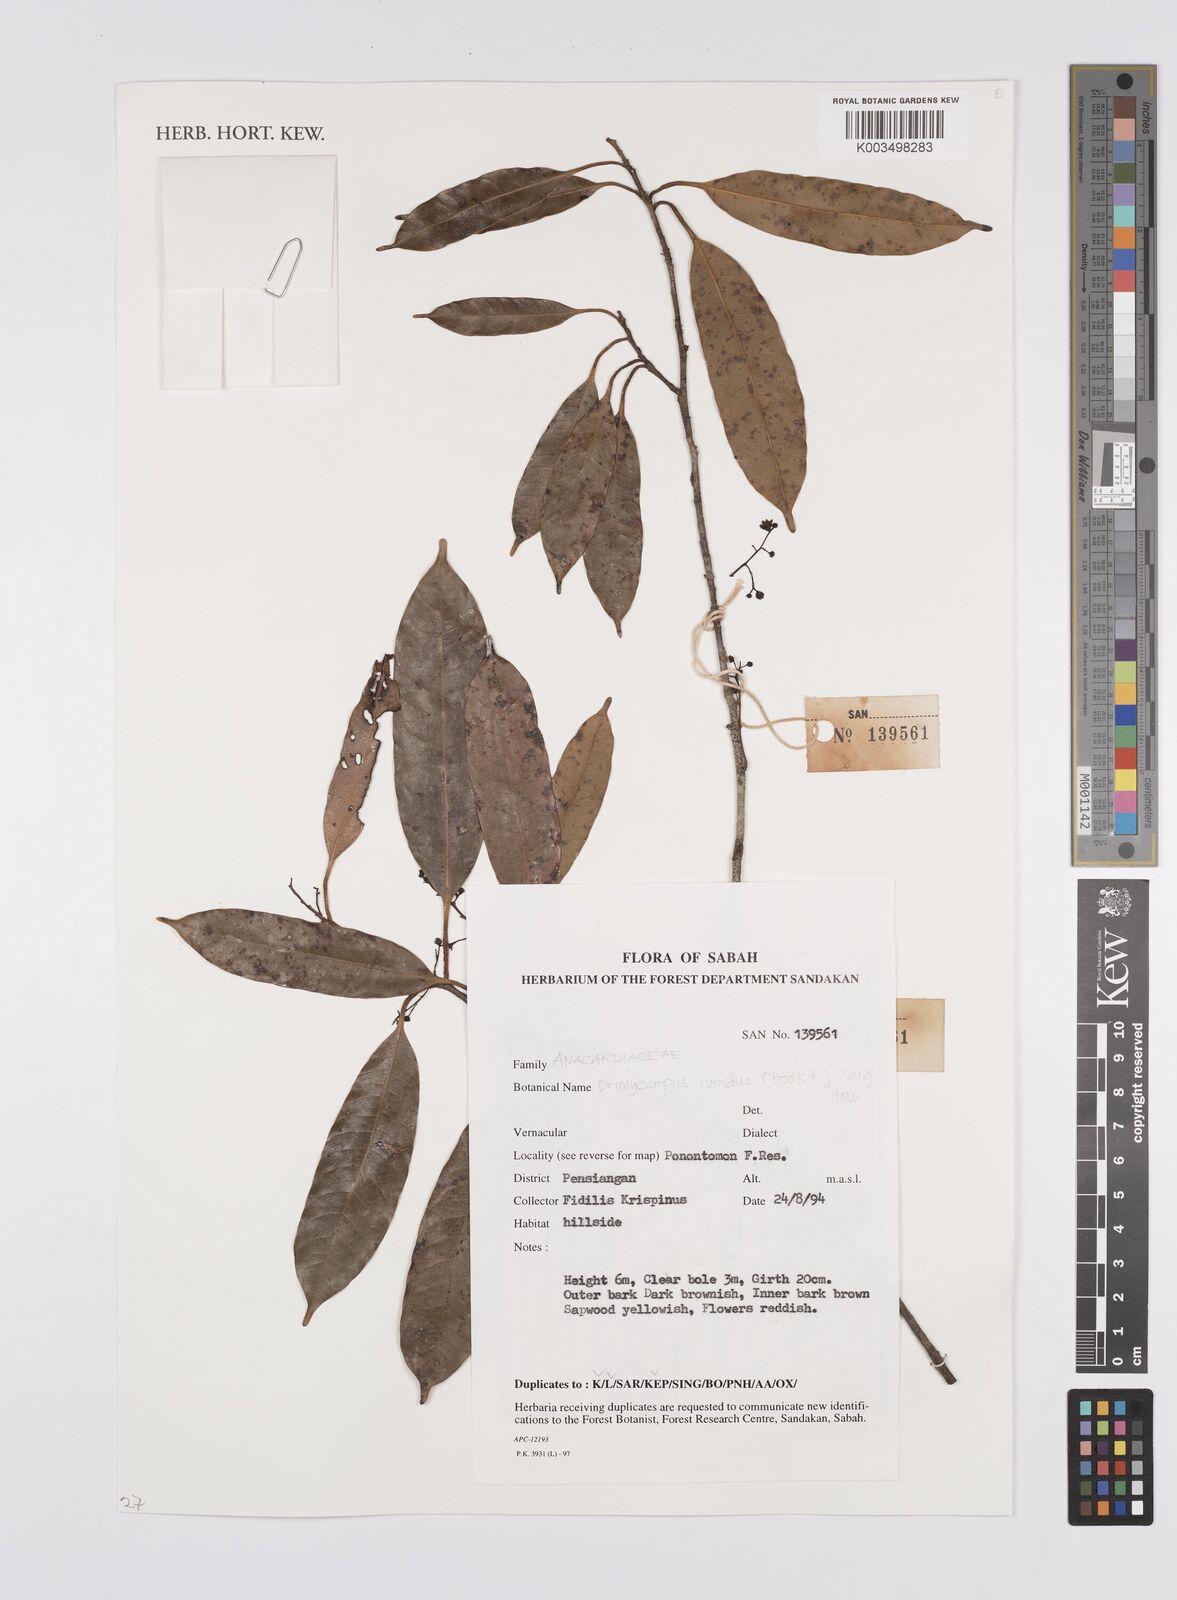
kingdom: Plantae
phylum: Tracheophyta
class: Magnoliopsida
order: Sapindales
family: Anacardiaceae
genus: Drimycarpus
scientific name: Drimycarpus luridus
